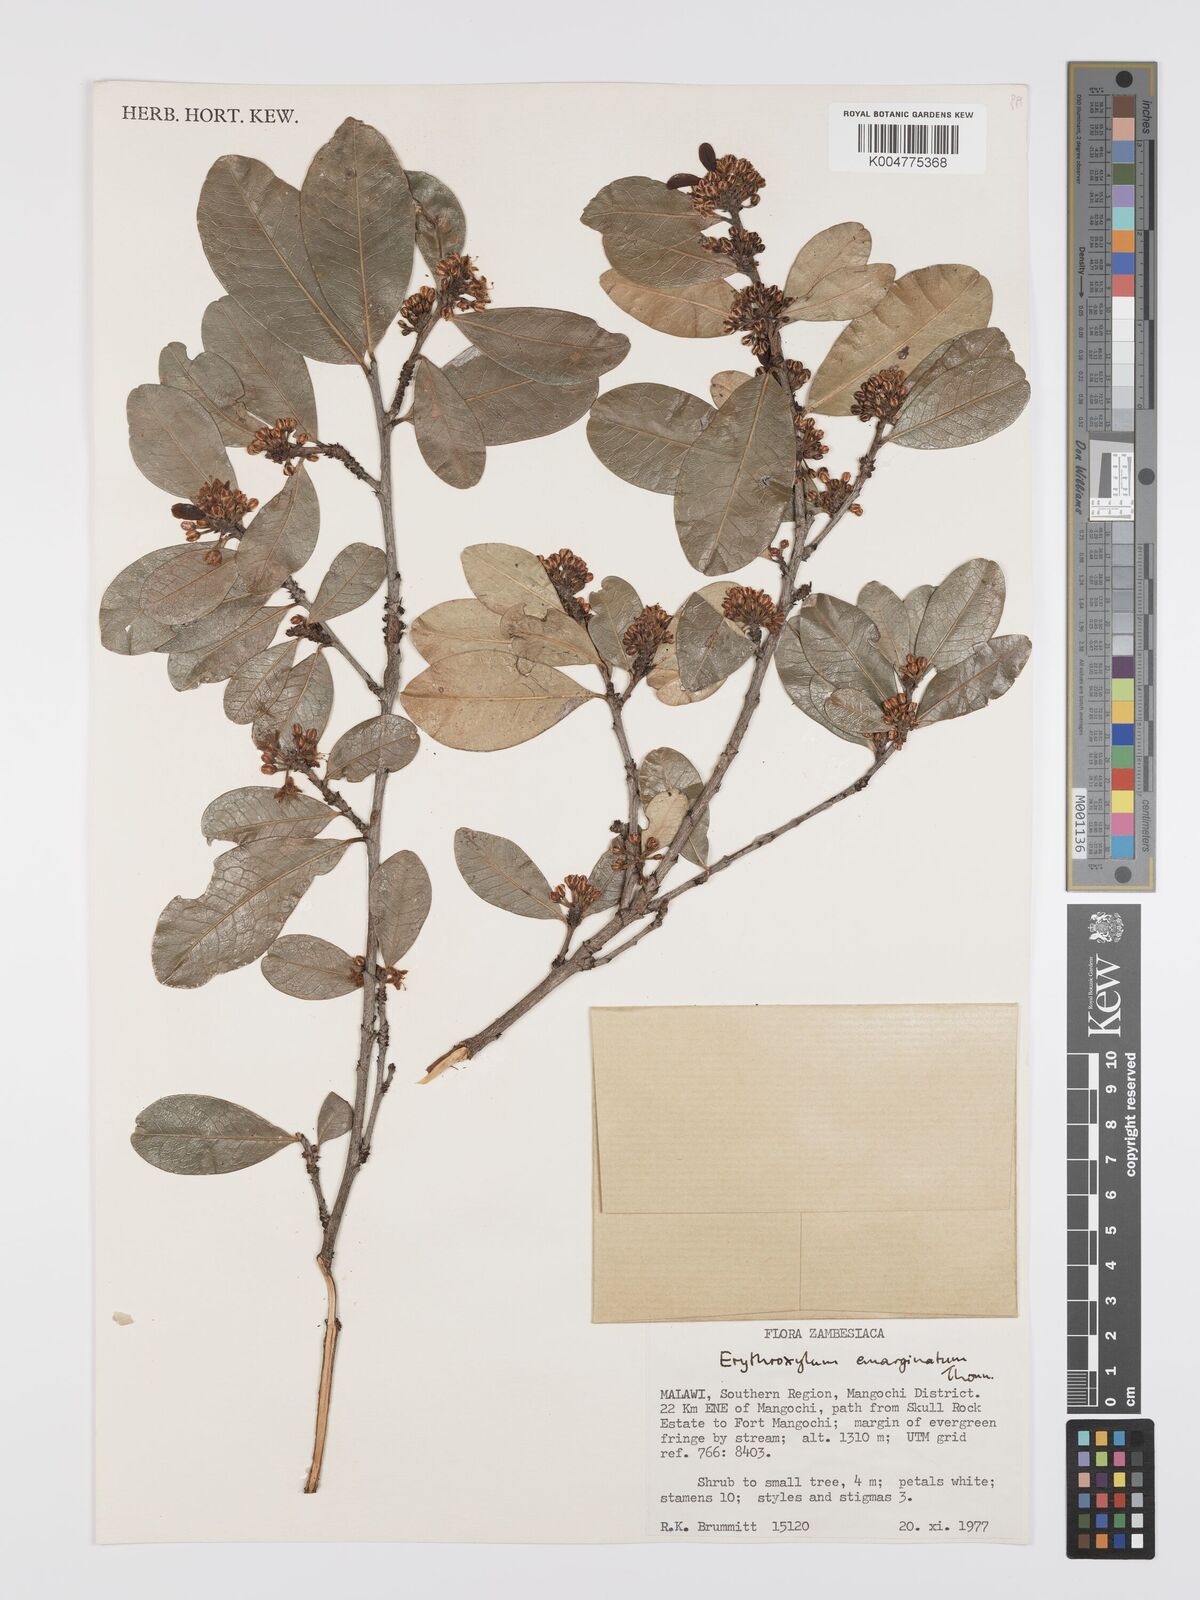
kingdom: Plantae
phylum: Tracheophyta
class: Magnoliopsida
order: Malpighiales
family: Erythroxylaceae
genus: Erythroxylum
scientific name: Erythroxylum emarginatum
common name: African coca-tree
